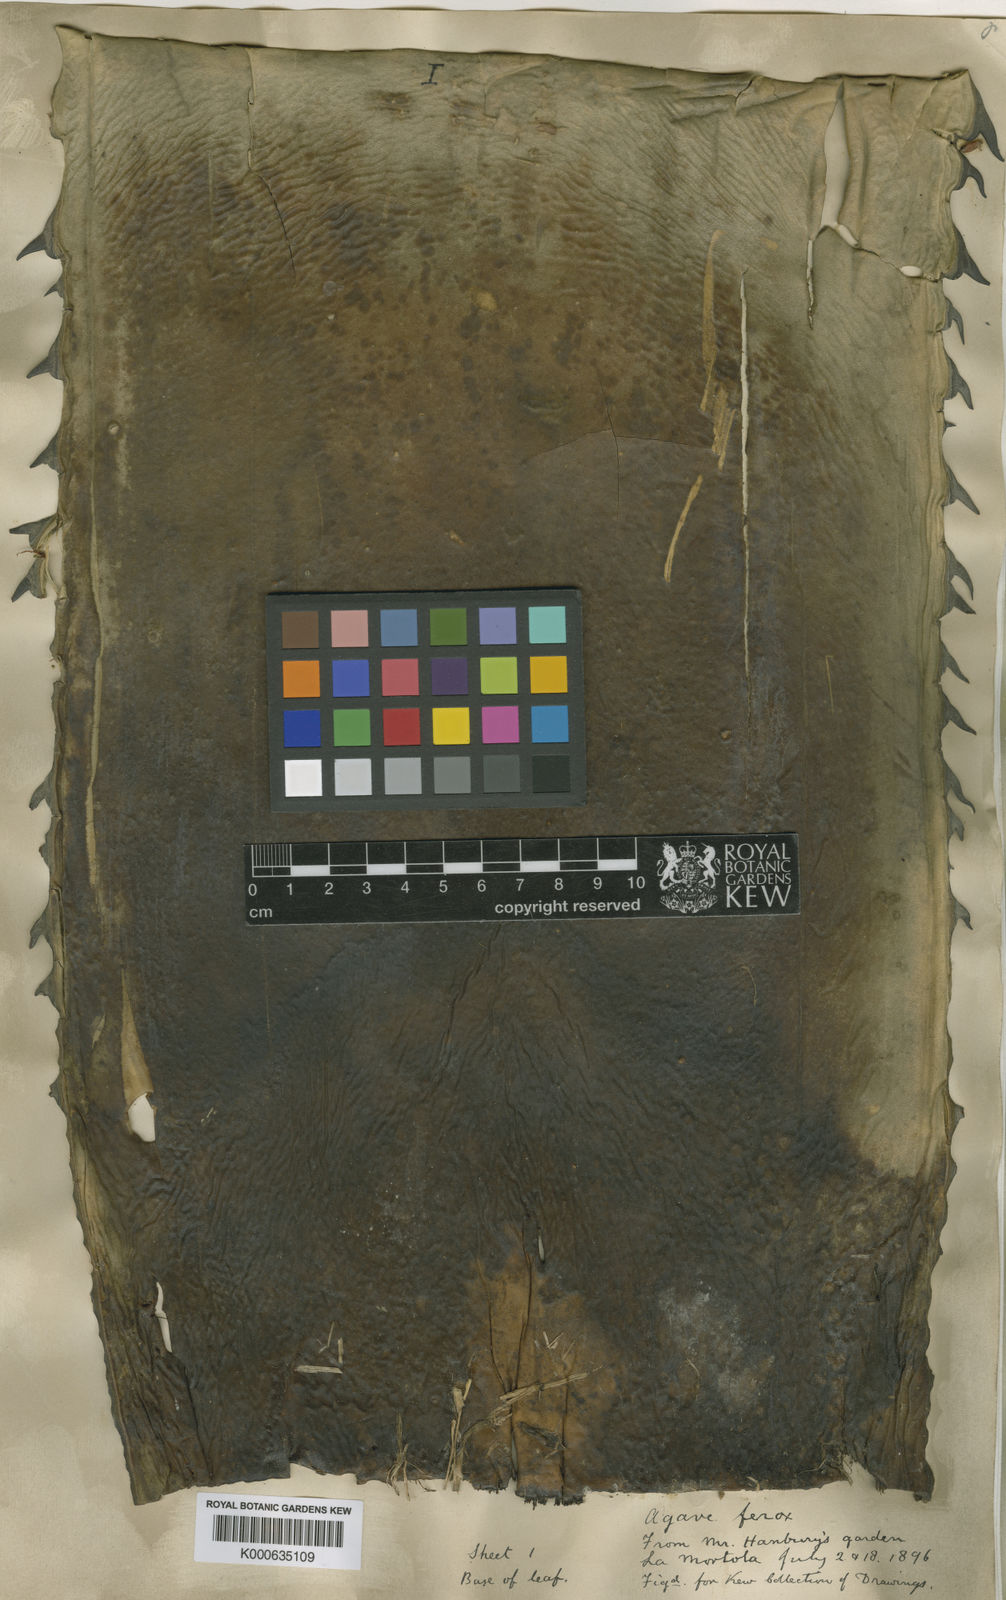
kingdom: Plantae
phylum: Tracheophyta
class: Liliopsida
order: Asparagales
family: Asparagaceae
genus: Agave
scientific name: Agave salmiana
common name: Pulque agave
